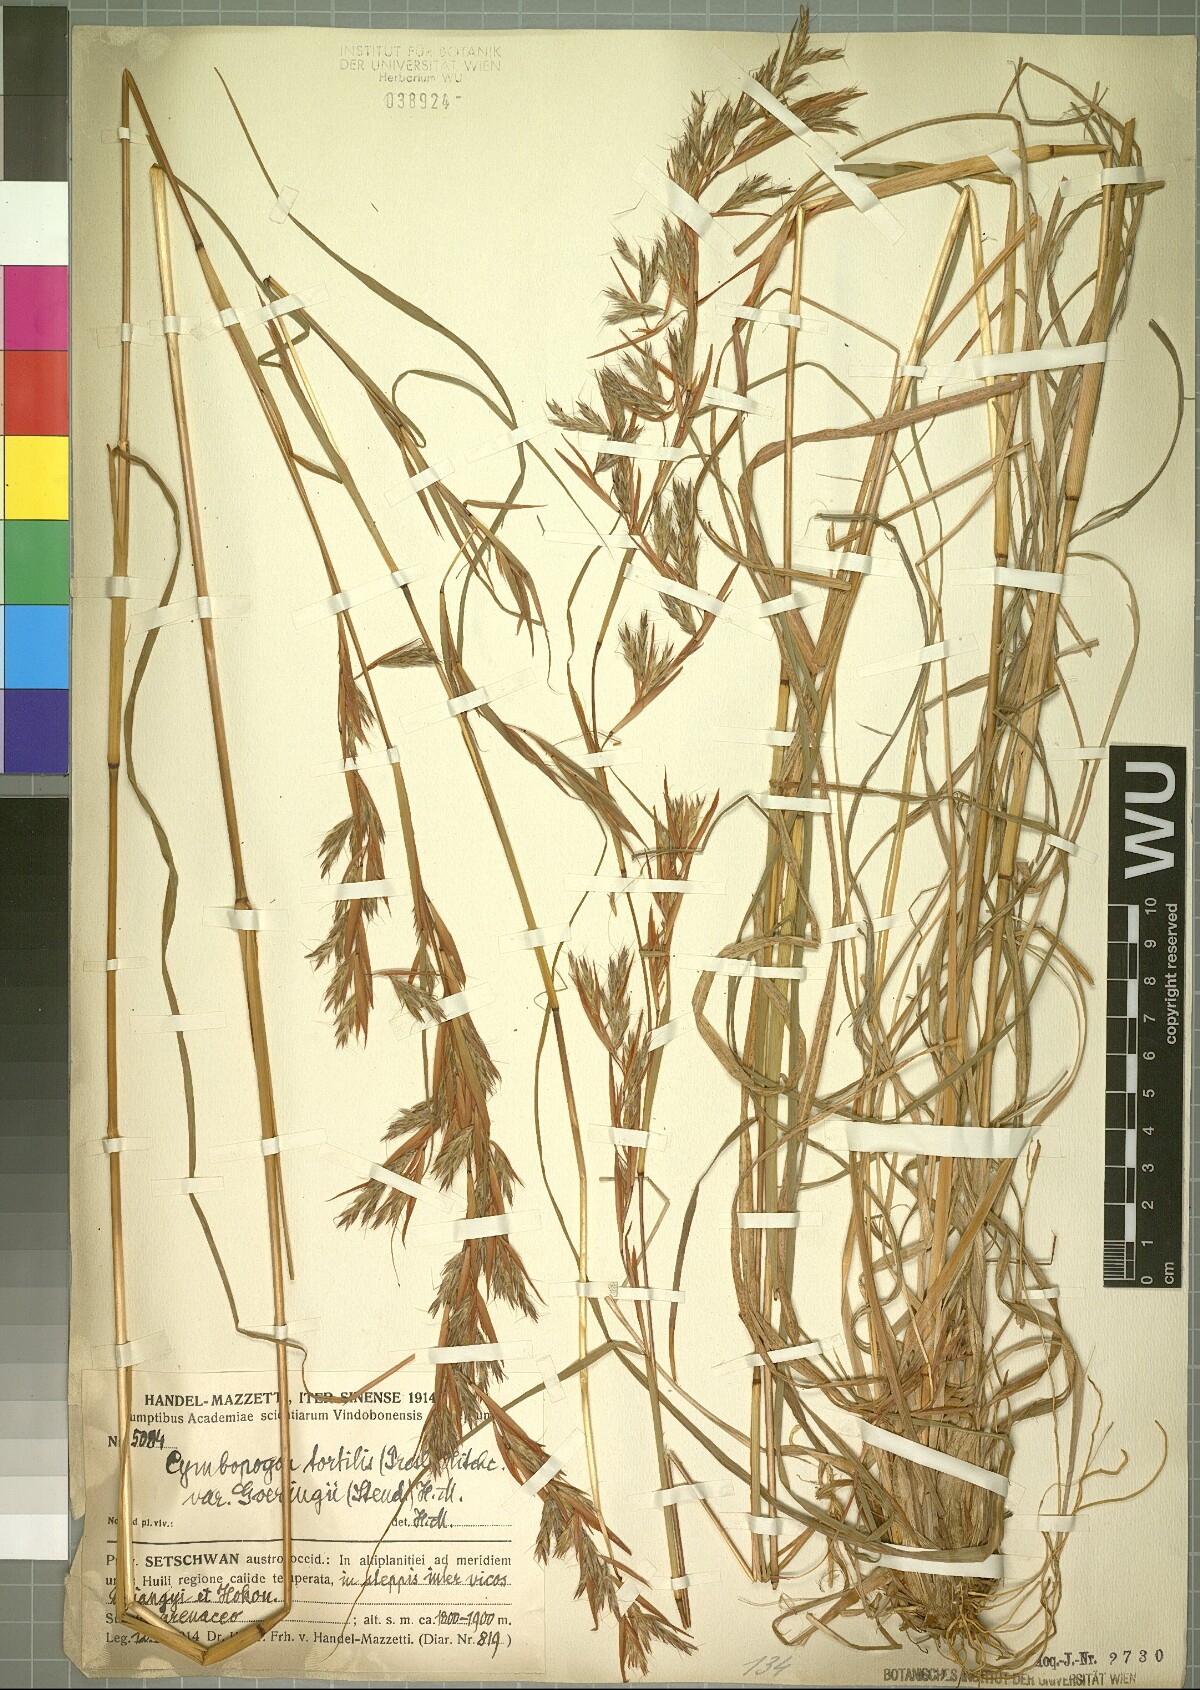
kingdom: Plantae
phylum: Tracheophyta
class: Liliopsida
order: Poales
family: Poaceae
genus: Cymbopogon
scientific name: Cymbopogon tortilis
